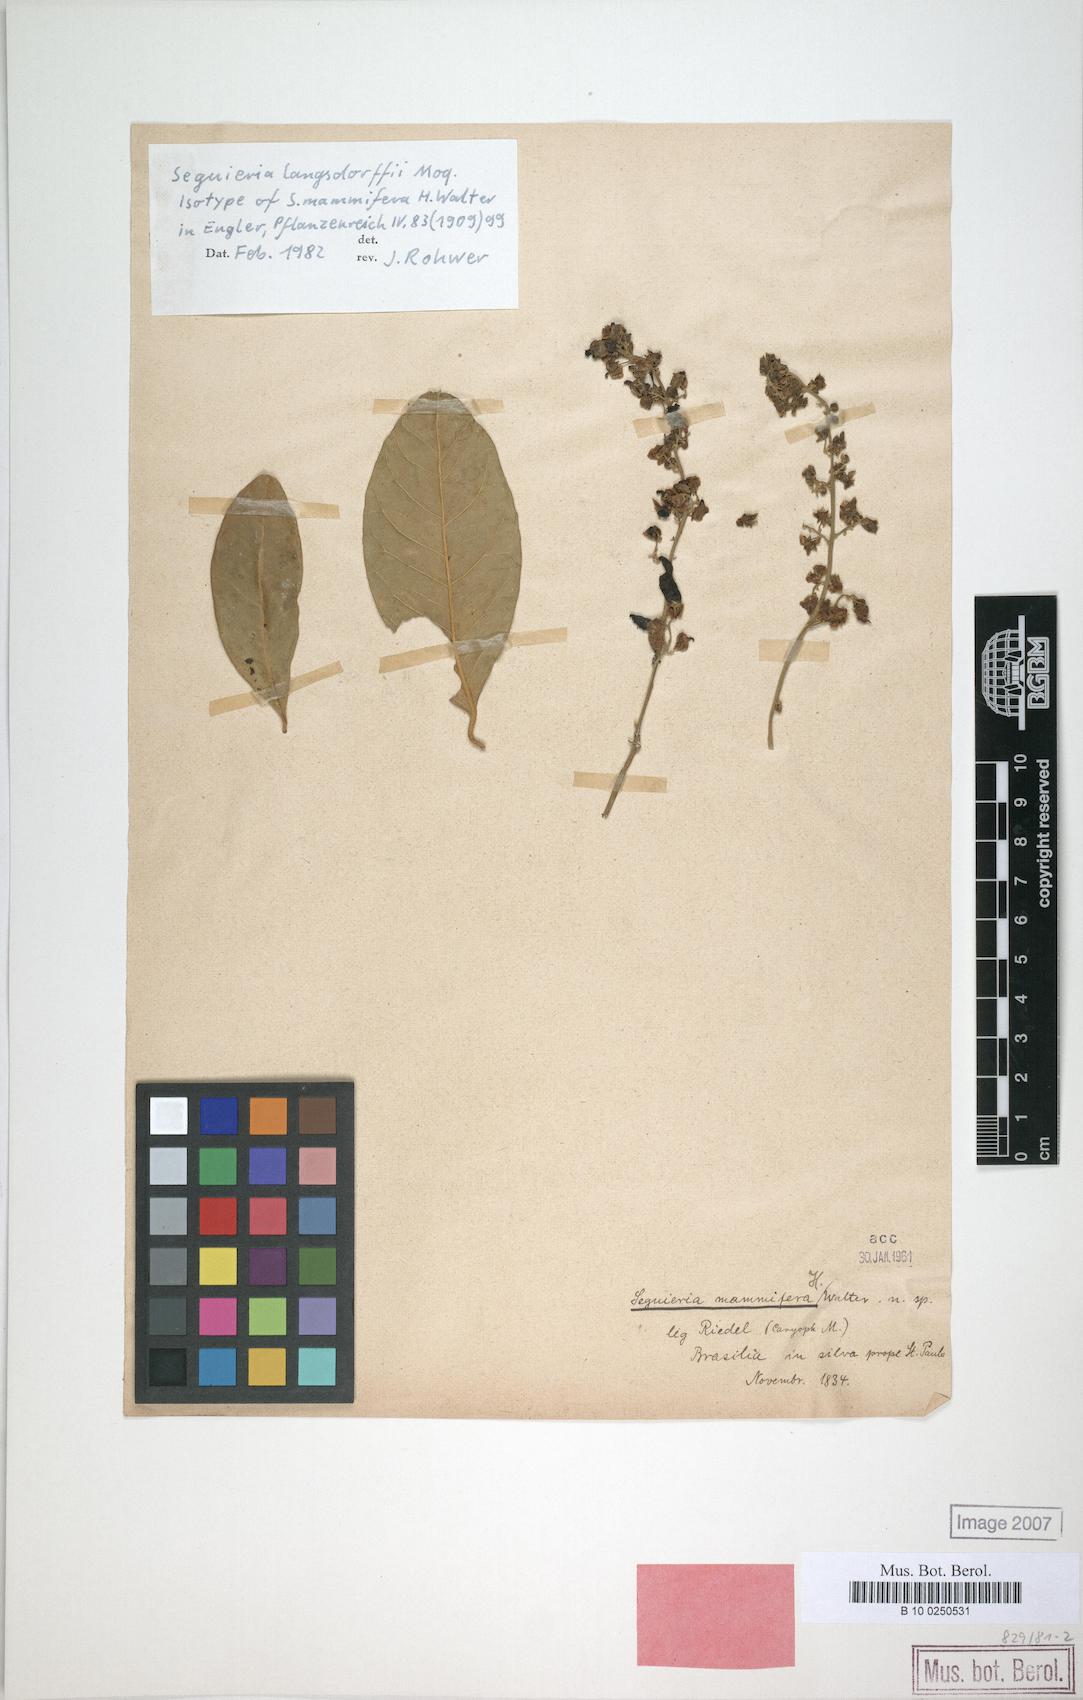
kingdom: Plantae
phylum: Tracheophyta
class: Magnoliopsida
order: Caryophyllales
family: Phytolaccaceae
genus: Seguieria
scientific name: Seguieria langsdorffii
